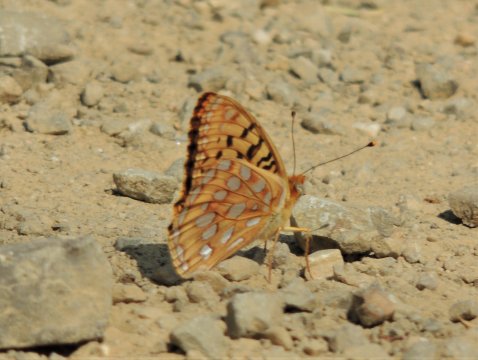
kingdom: Animalia
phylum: Arthropoda
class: Insecta
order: Lepidoptera
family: Nymphalidae
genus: Speyeria
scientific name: Speyeria coronis
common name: Coronis Fritillary
